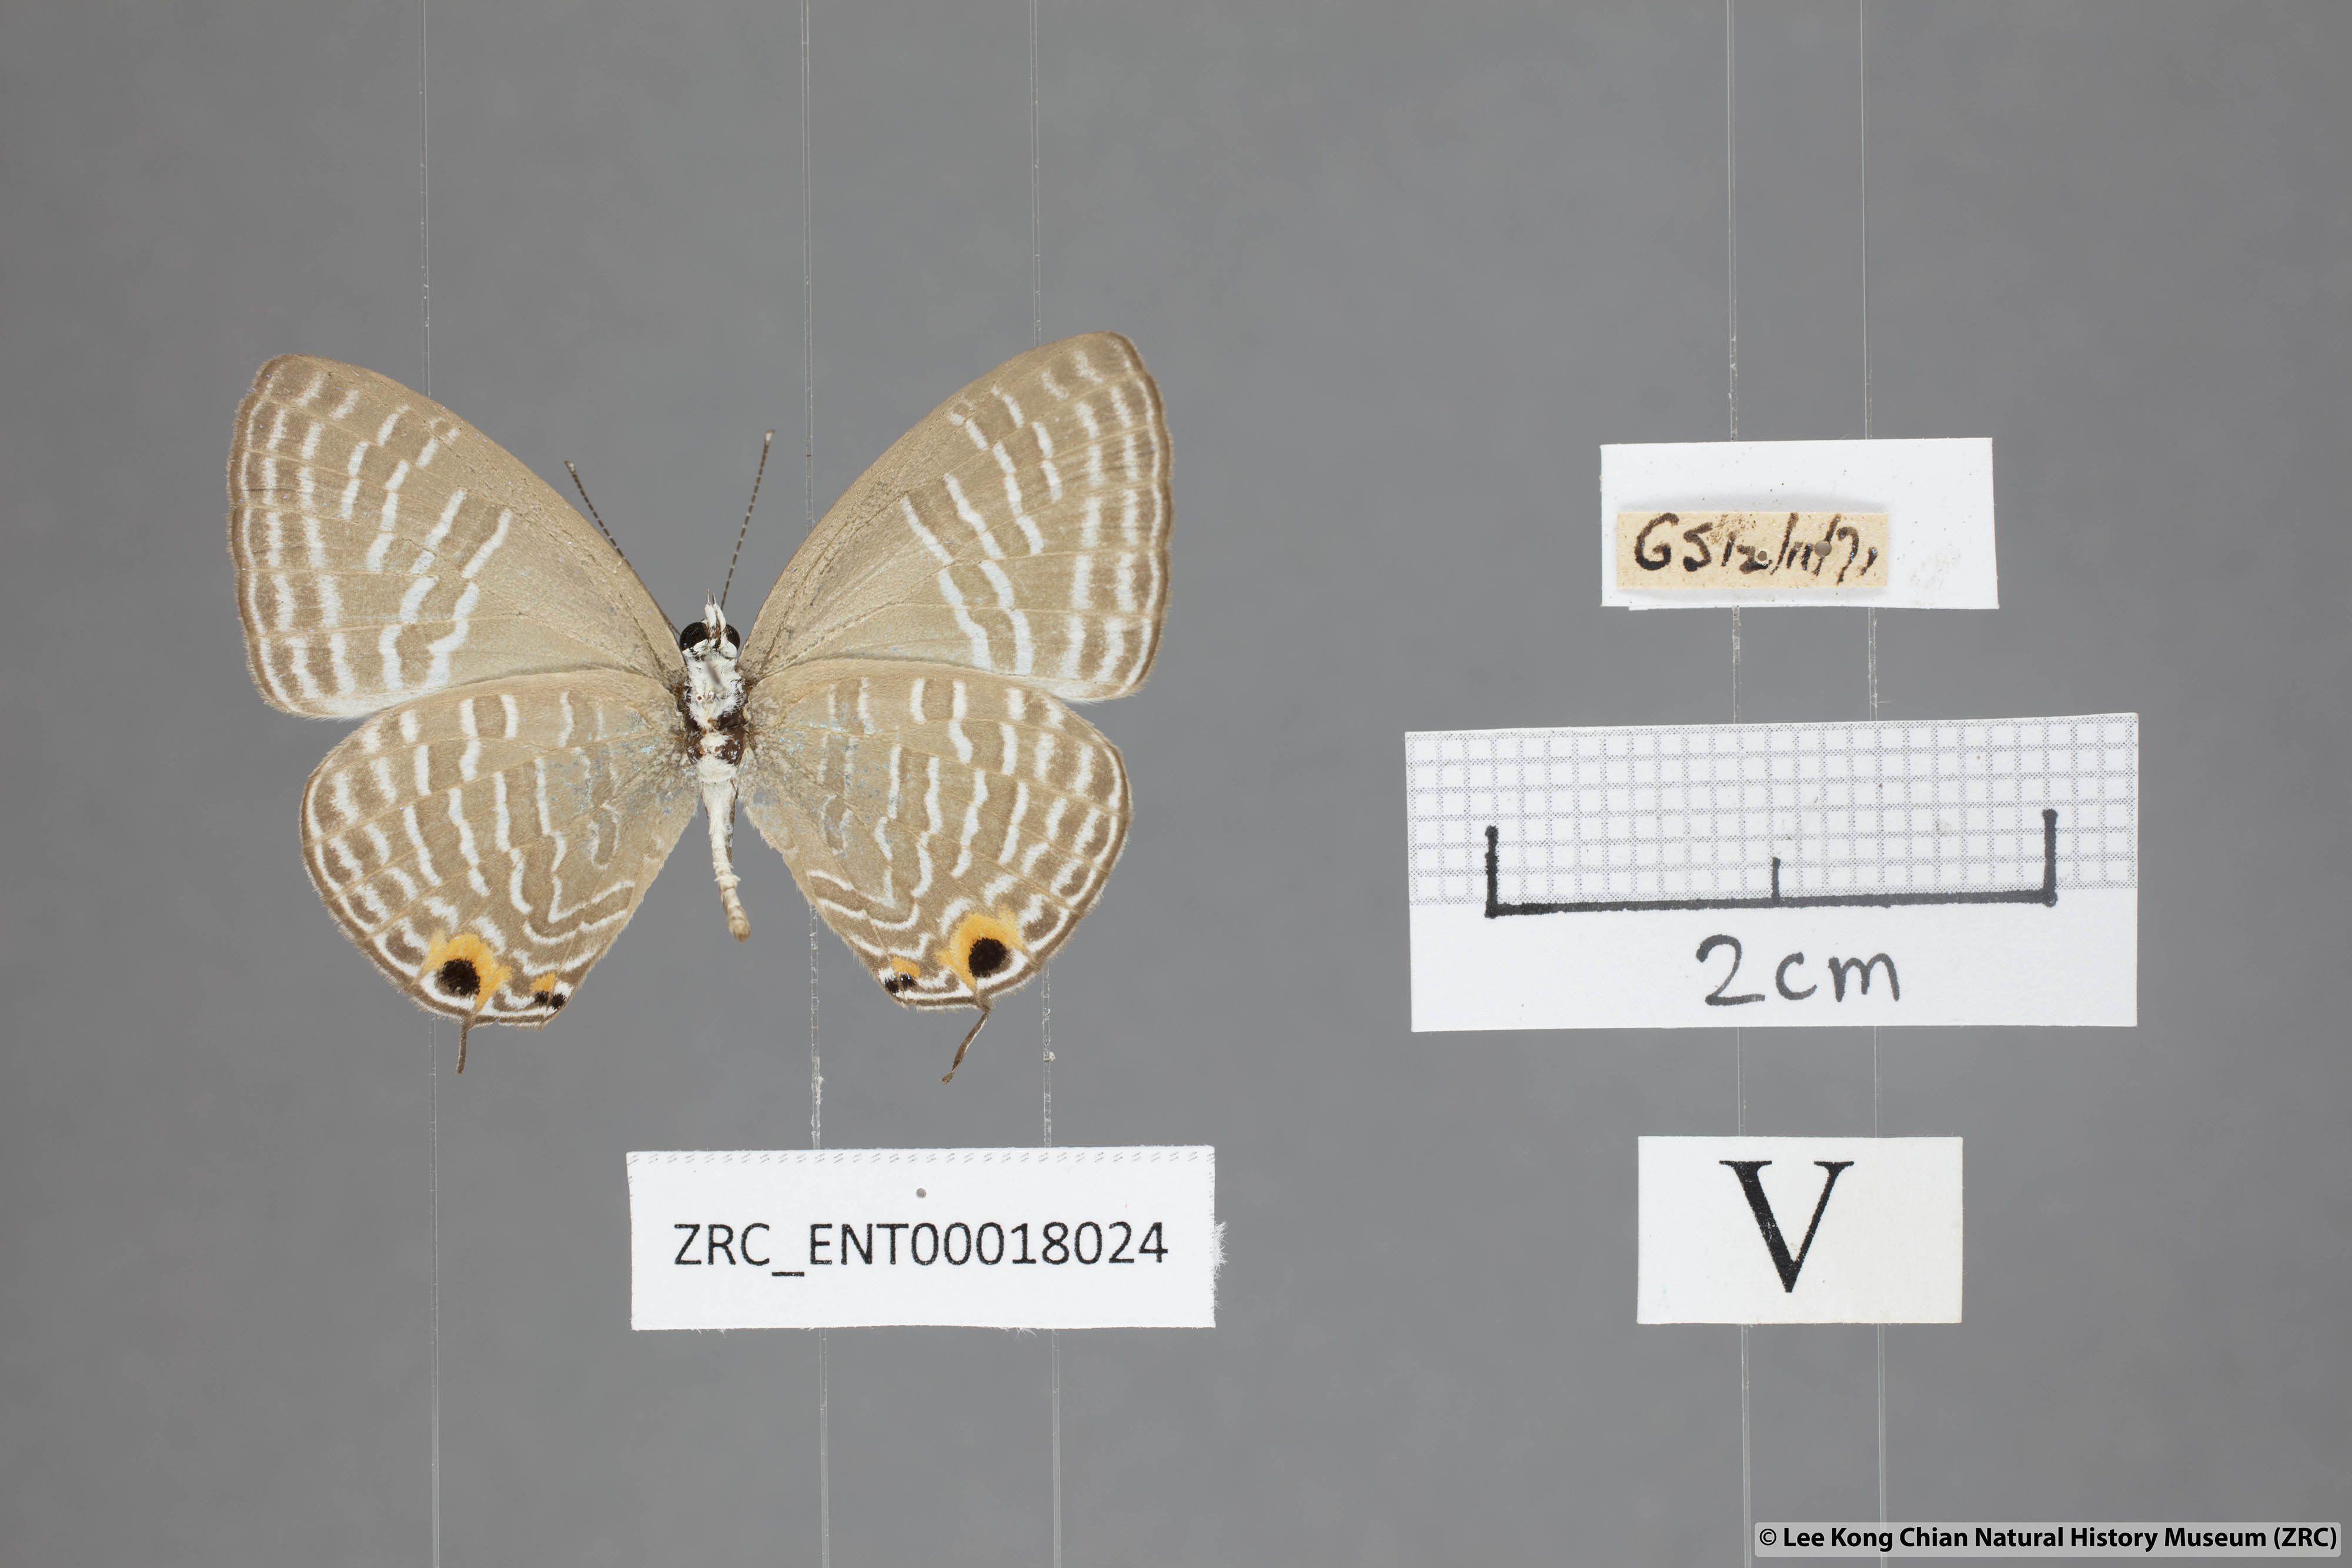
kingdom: Animalia
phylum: Arthropoda
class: Insecta
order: Lepidoptera
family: Lycaenidae
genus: Jamides
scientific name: Jamides alecto
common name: Metallic cerulean
